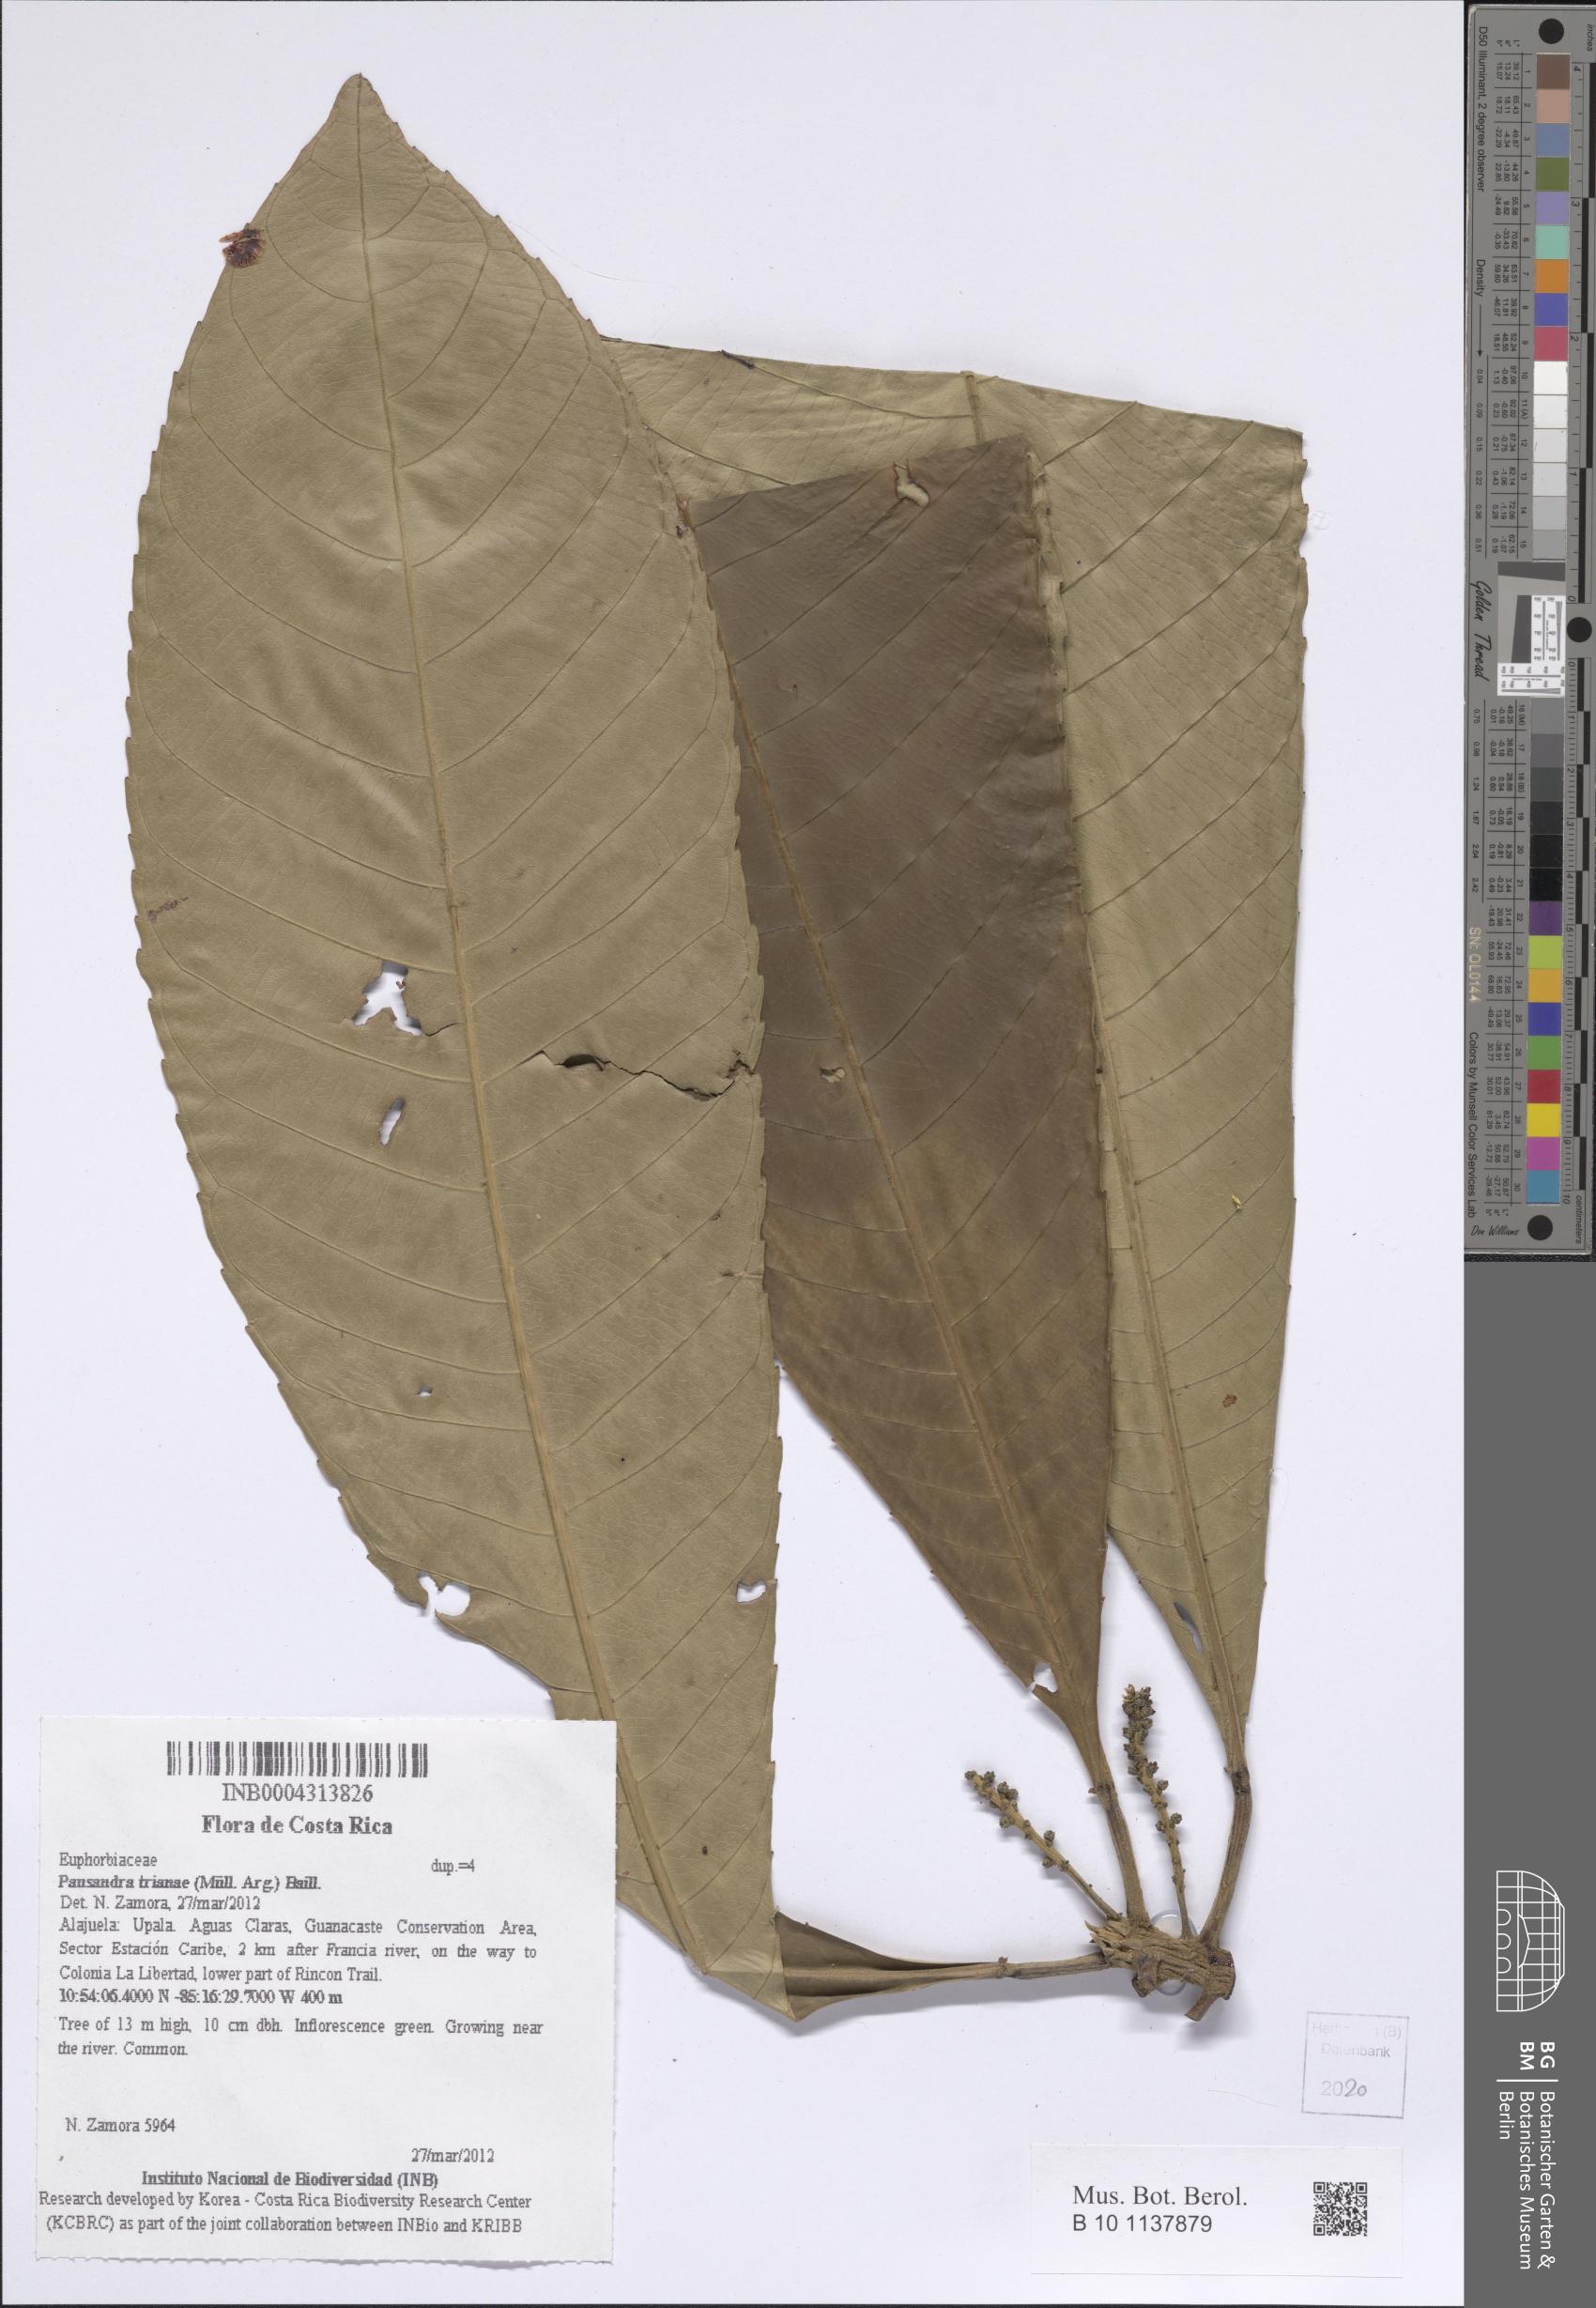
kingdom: Plantae
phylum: Tracheophyta
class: Magnoliopsida
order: Malpighiales
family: Euphorbiaceae
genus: Pausandra
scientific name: Pausandra trianae
